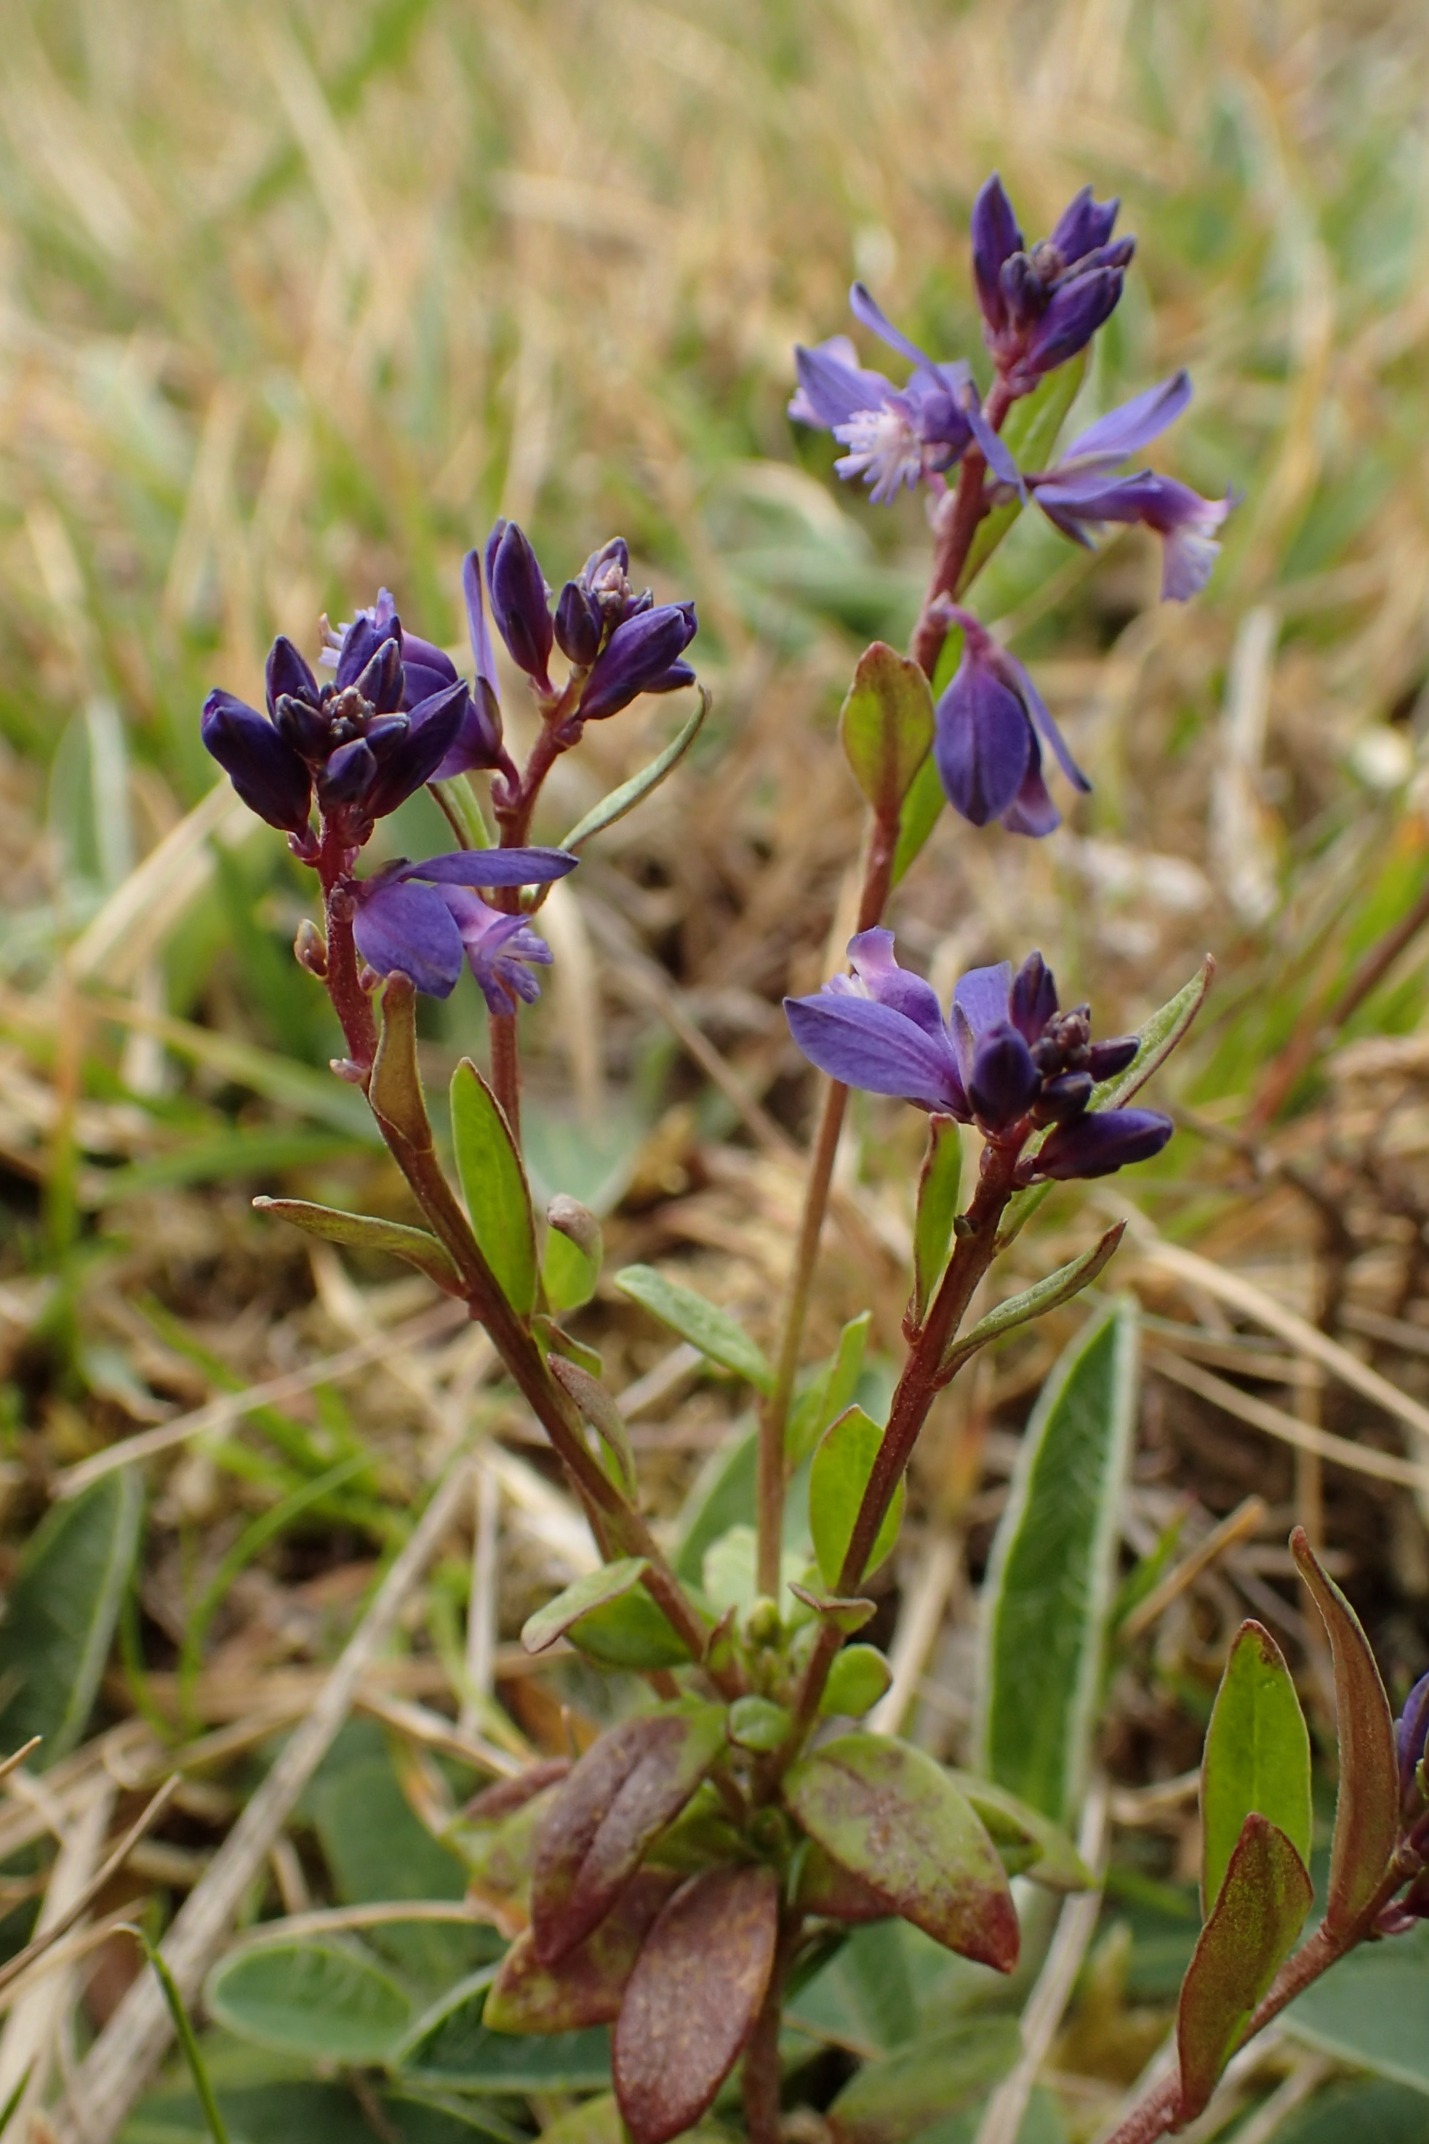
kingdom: Plantae
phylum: Tracheophyta
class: Magnoliopsida
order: Fabales
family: Polygalaceae
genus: Polygala
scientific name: Polygala serpyllifolia
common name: Spæd mælkeurt
